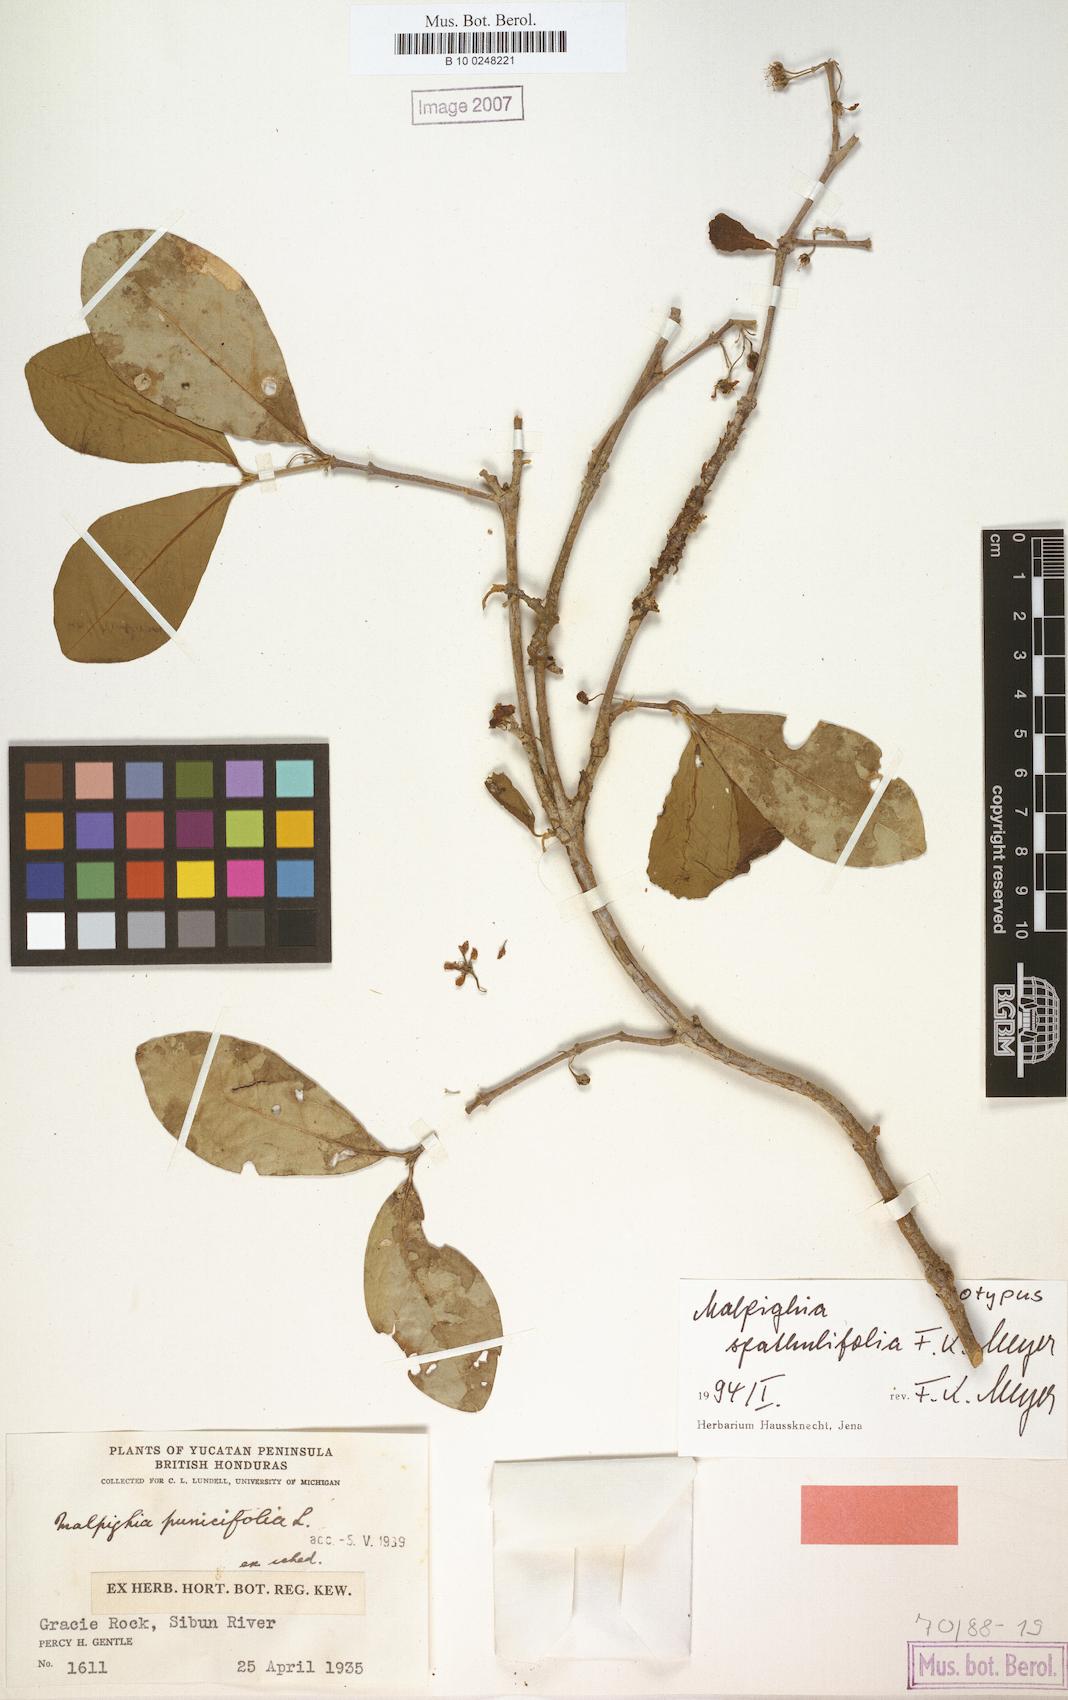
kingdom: Plantae
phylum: Tracheophyta
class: Magnoliopsida
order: Malpighiales
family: Malpighiaceae
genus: Malpighia
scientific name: Malpighia spathulifolia
